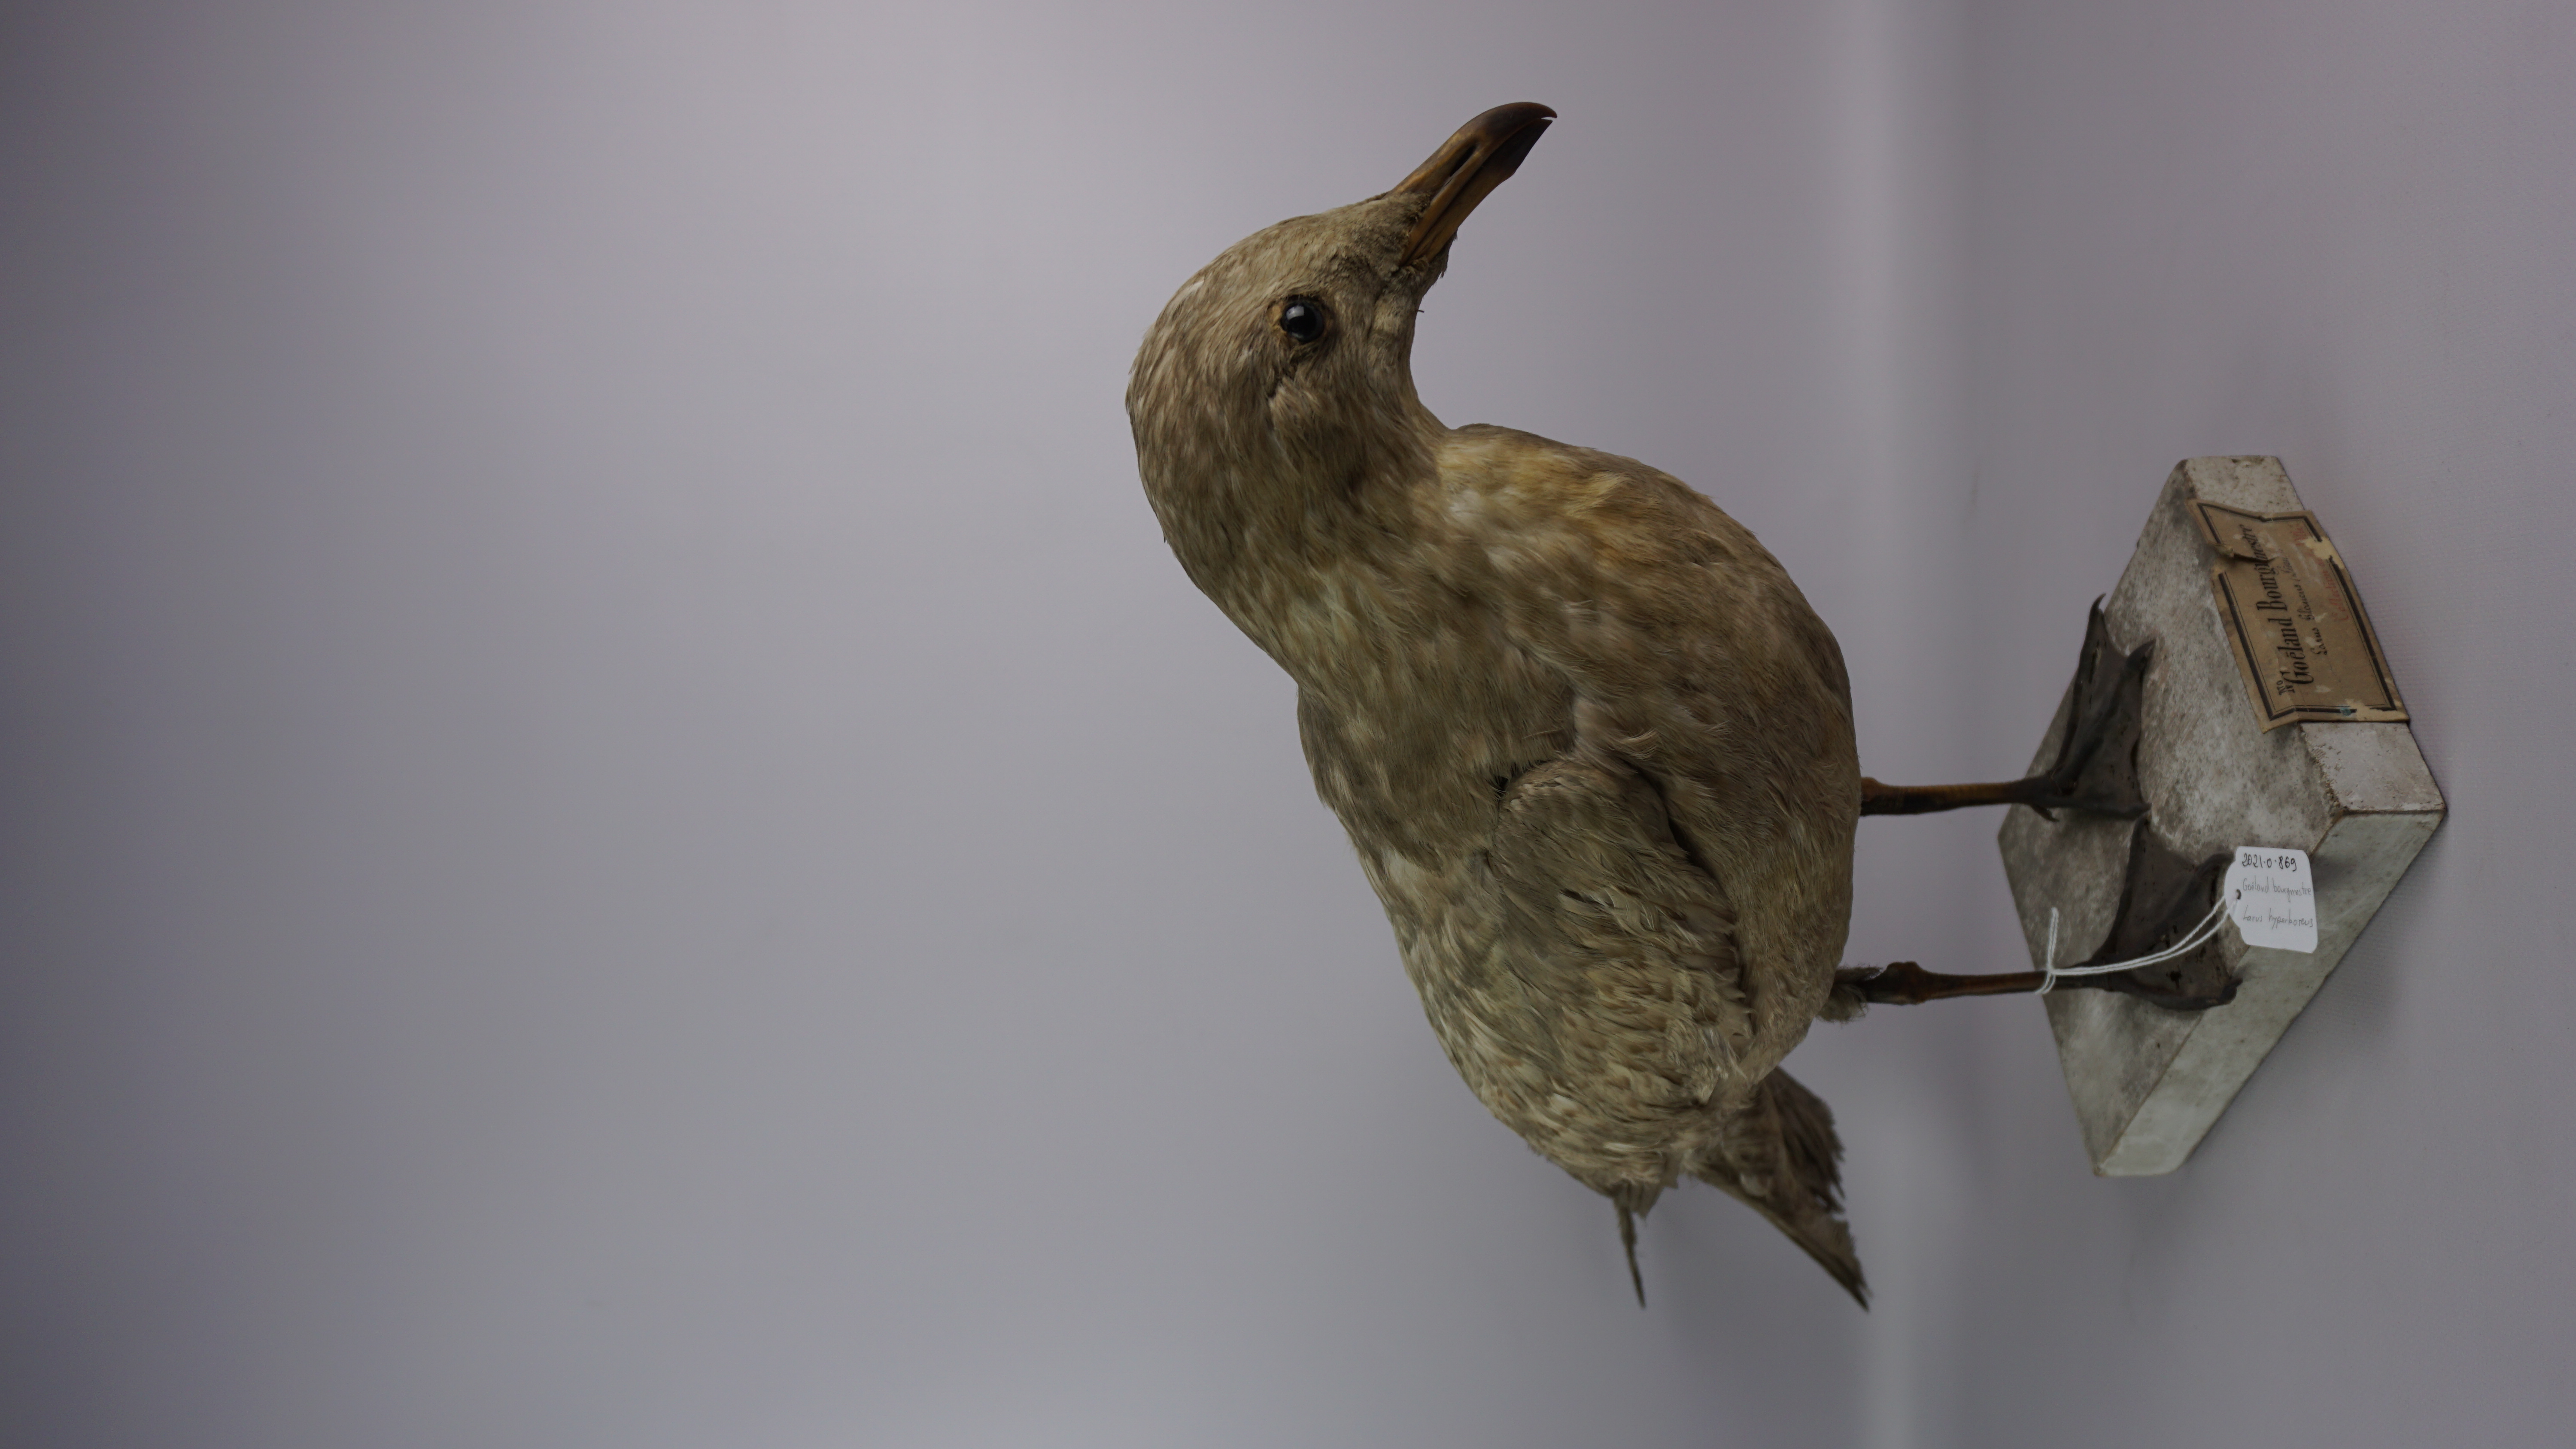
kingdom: Animalia
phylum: Chordata
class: Aves
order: Charadriiformes
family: Laridae
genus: Larus
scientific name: Larus hyperboreus
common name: Glaucous gull
